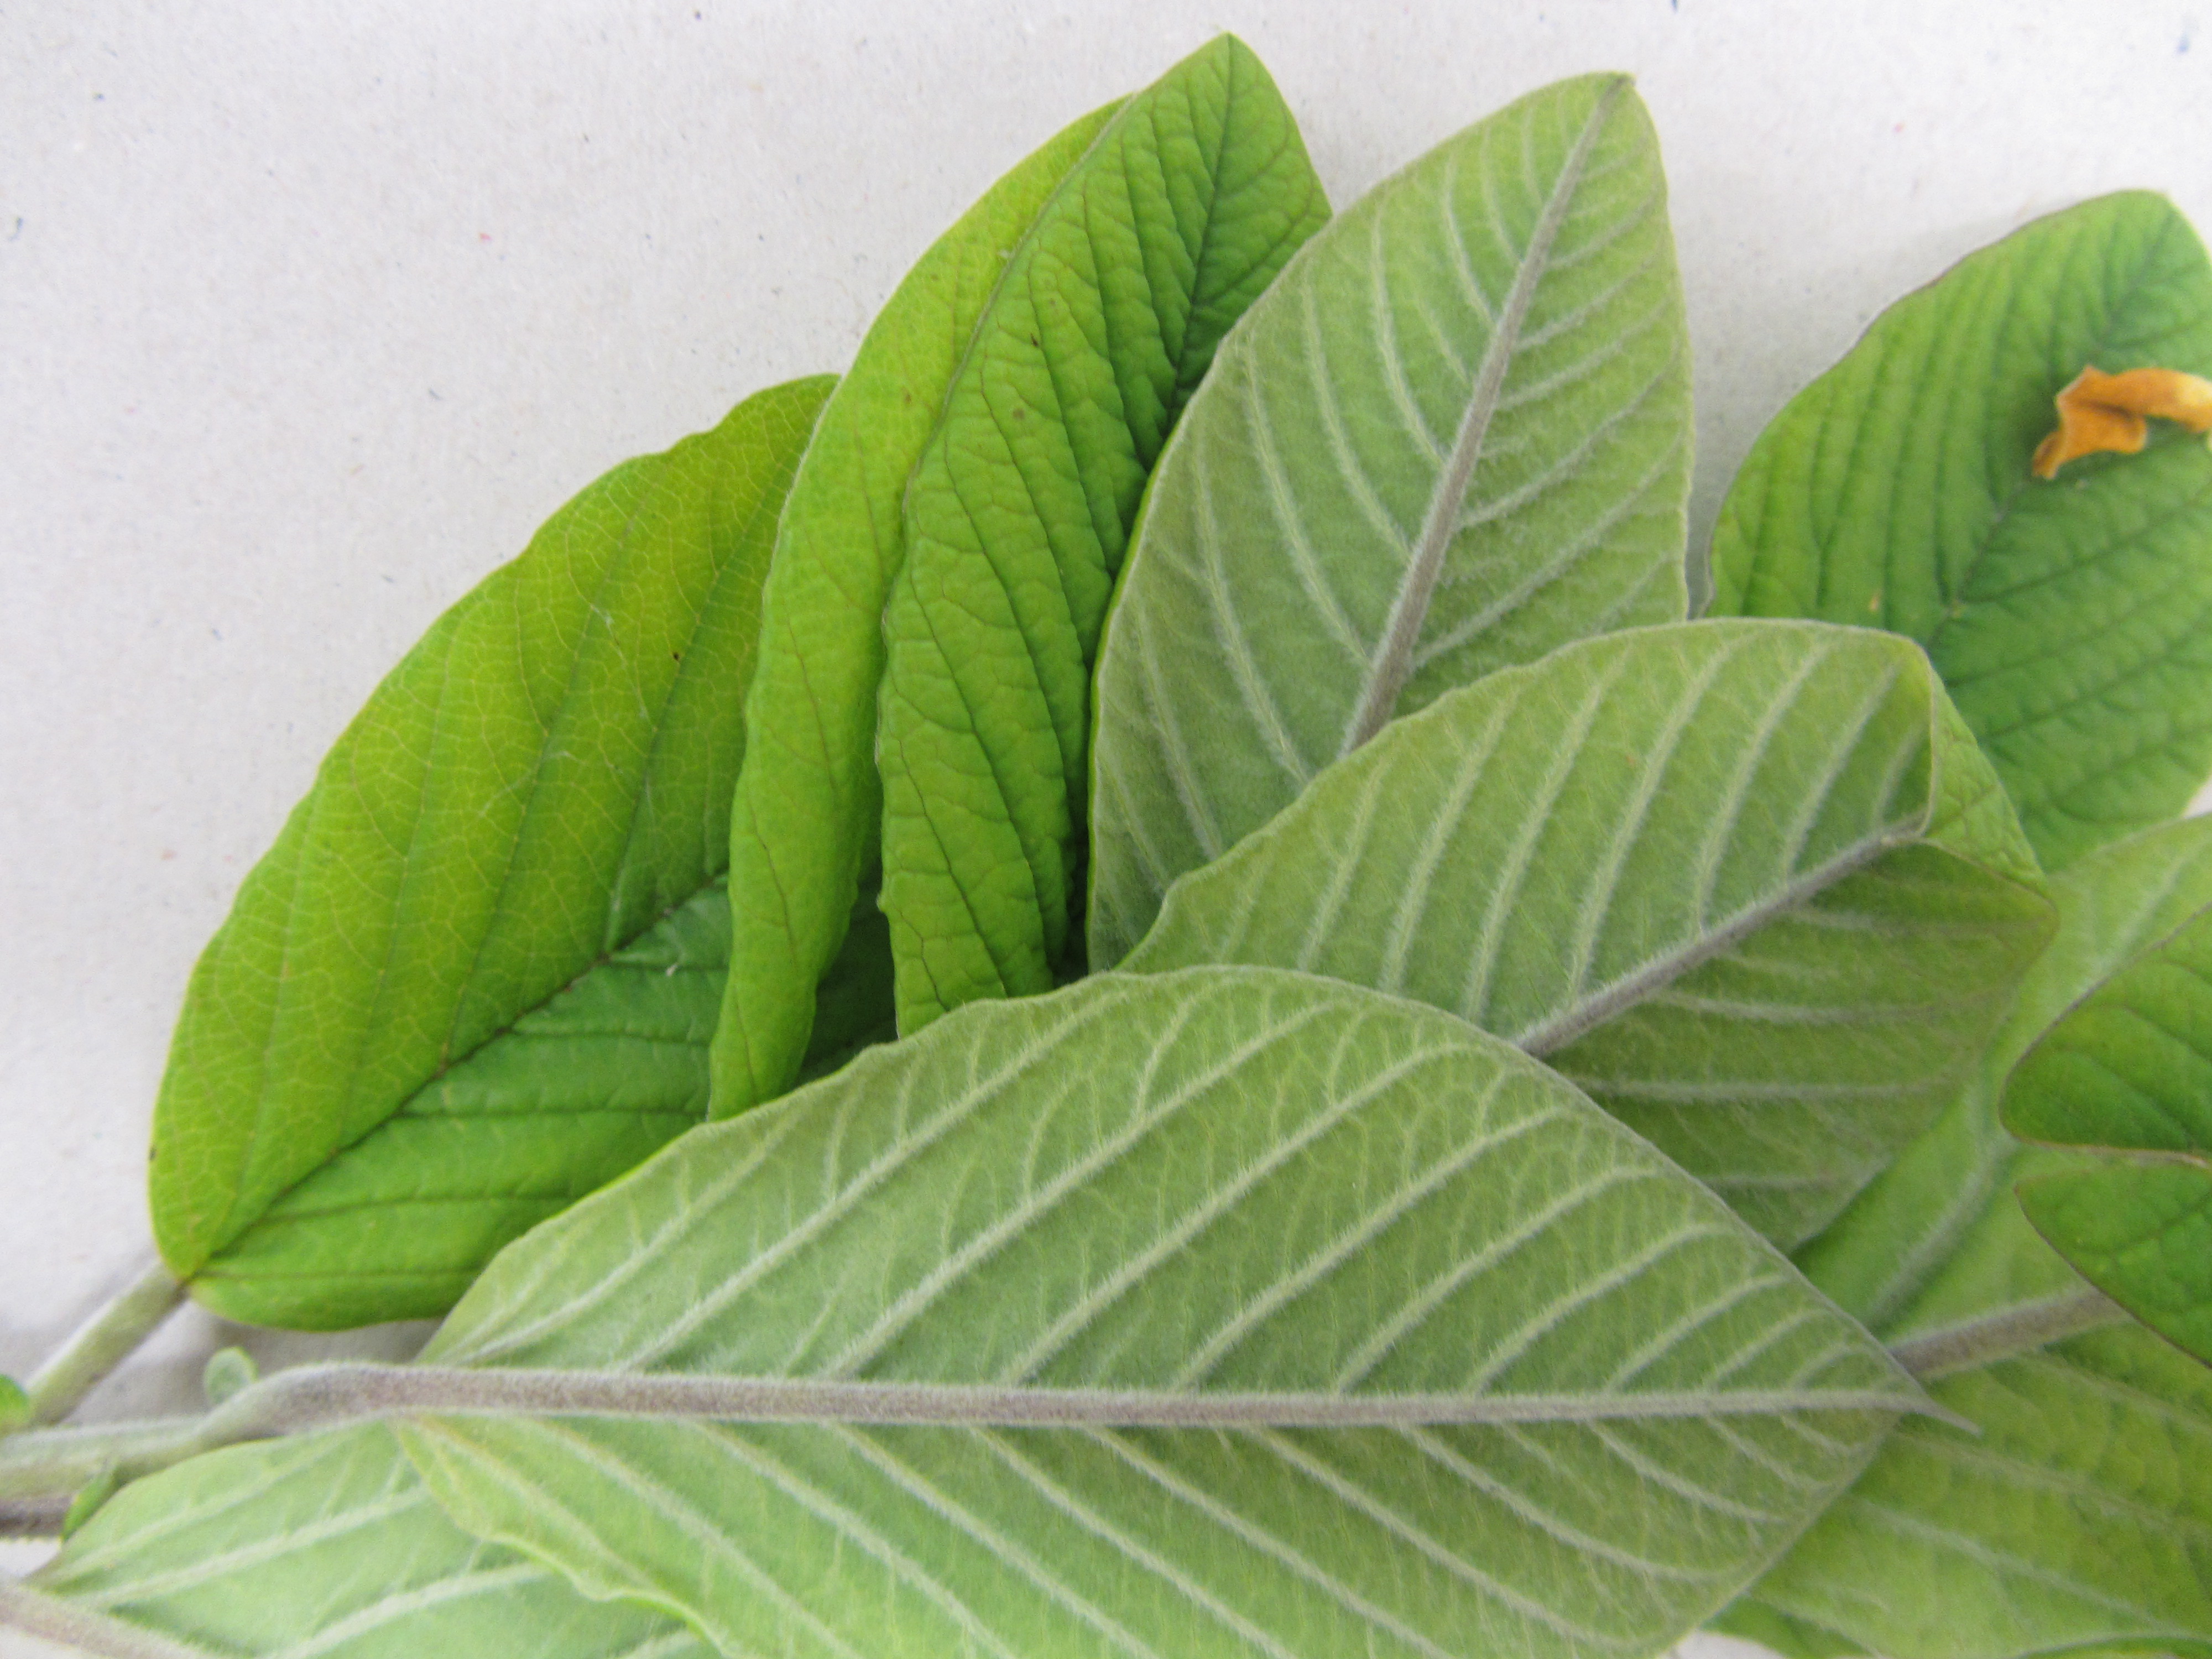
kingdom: Plantae
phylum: Tracheophyta
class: Magnoliopsida
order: Fabales
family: Fabaceae
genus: Crotalaria
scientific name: Crotalaria beddomeana
